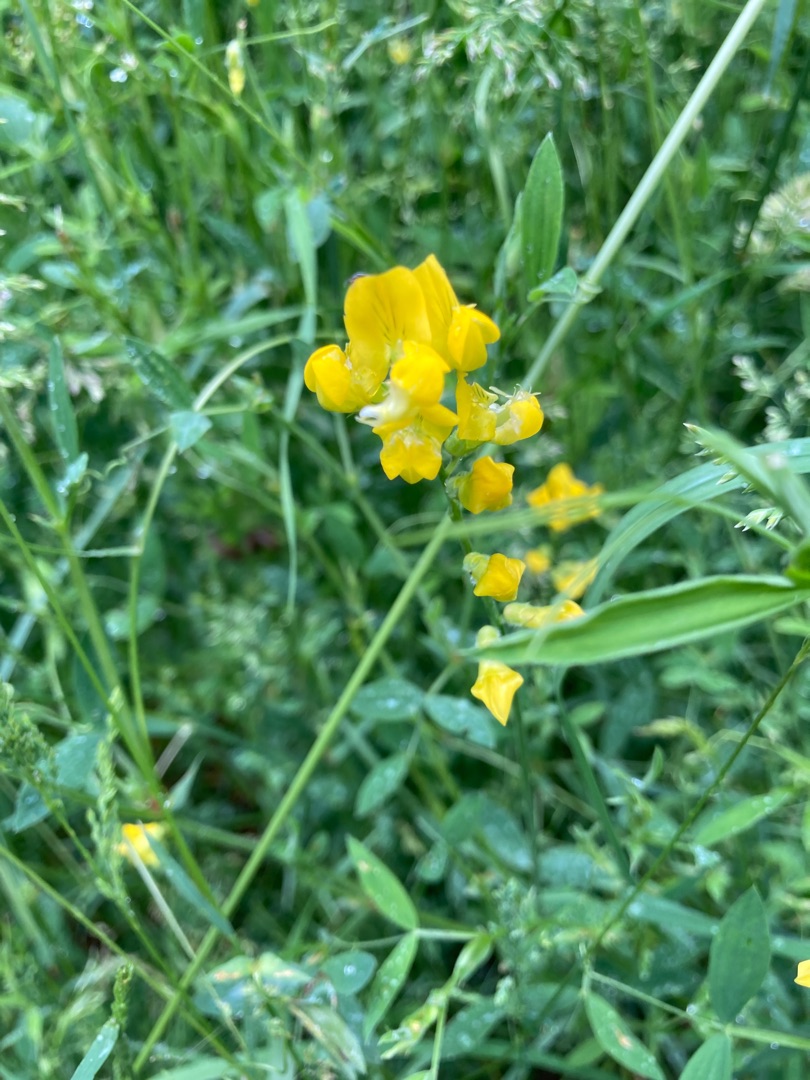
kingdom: Plantae
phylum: Tracheophyta
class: Magnoliopsida
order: Fabales
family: Fabaceae
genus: Lathyrus
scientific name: Lathyrus pratensis
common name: Gul fladbælg
